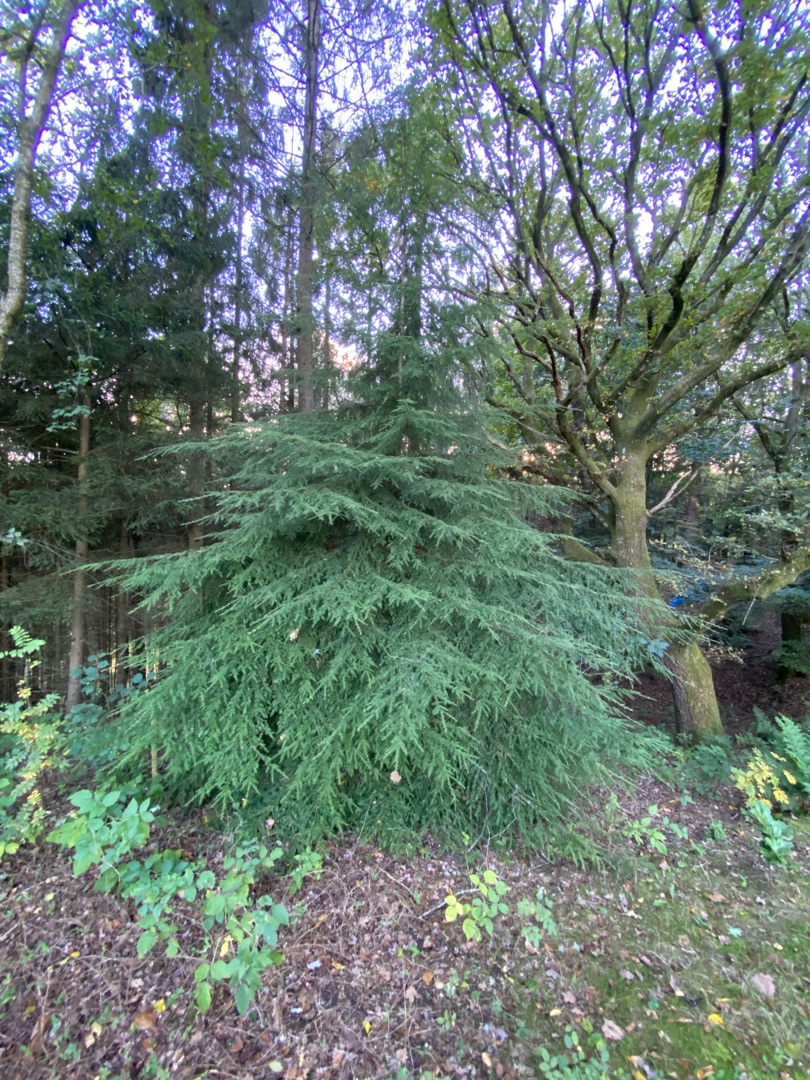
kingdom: Plantae
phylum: Tracheophyta
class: Pinopsida
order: Pinales
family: Pinaceae
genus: Tsuga
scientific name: Tsuga heterophylla
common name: Skarntydegran
